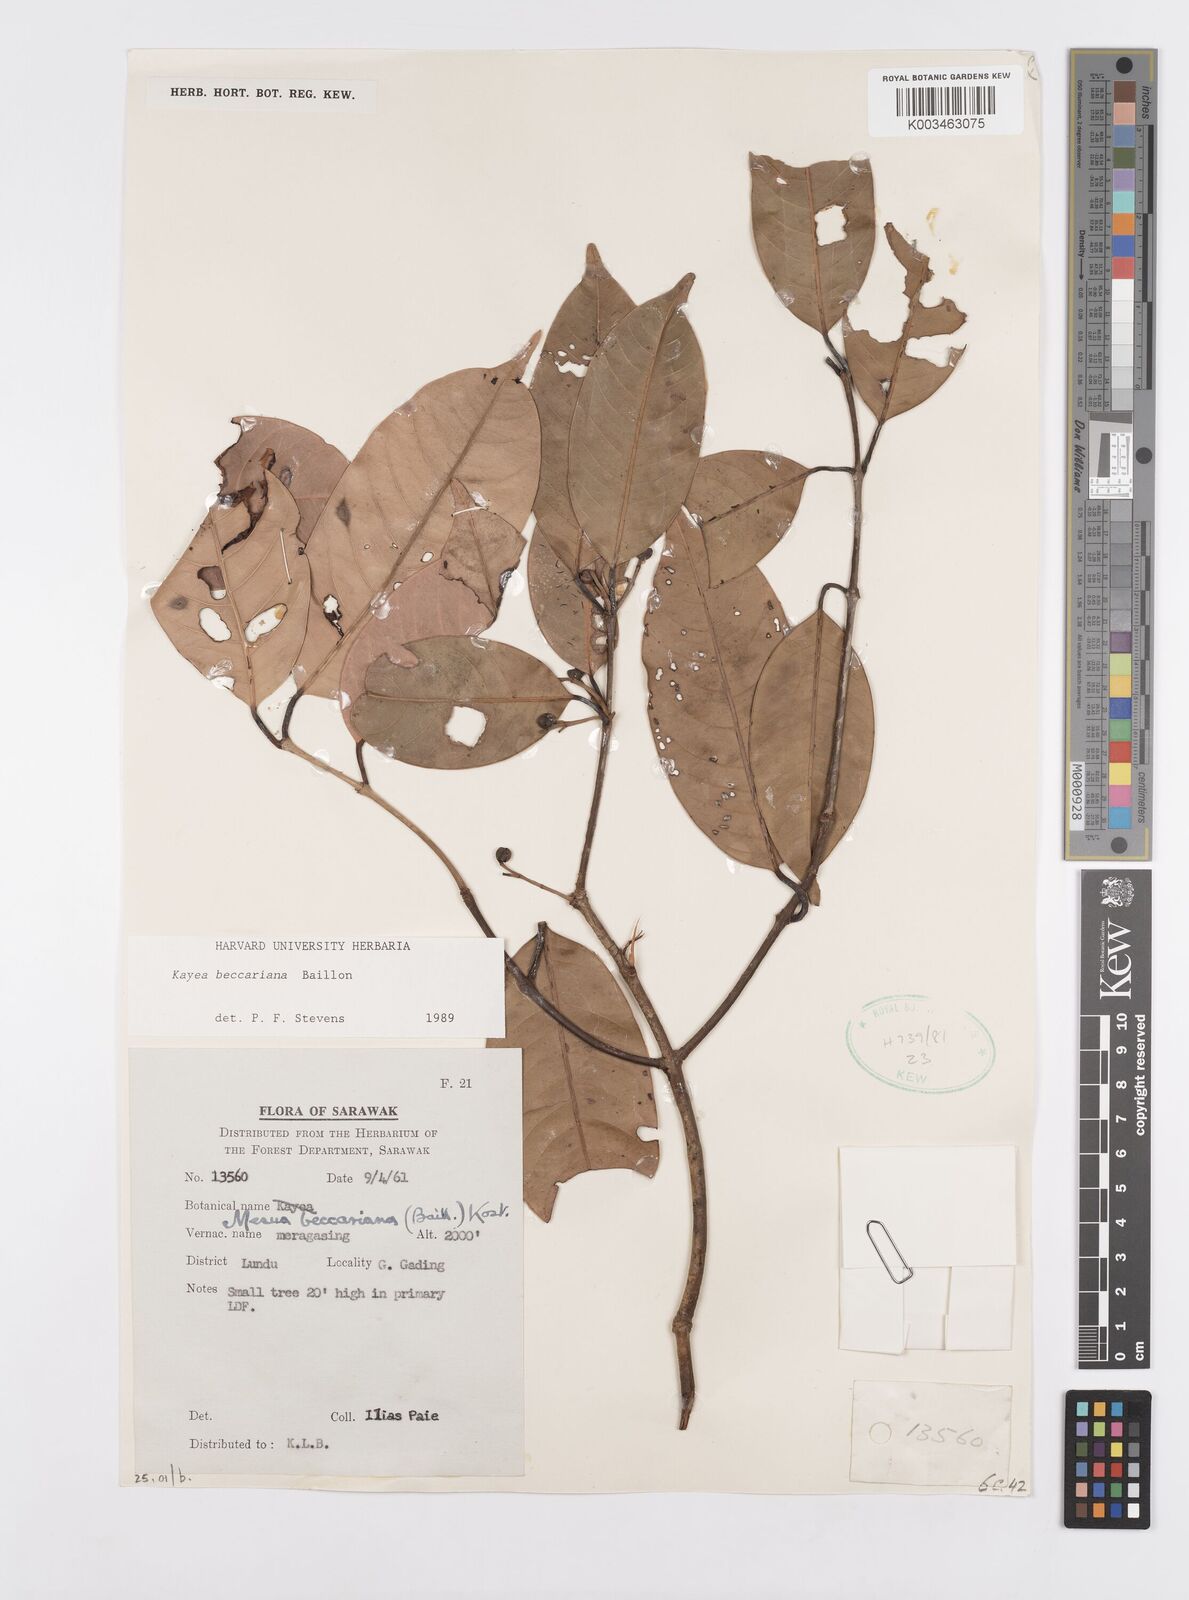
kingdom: Plantae
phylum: Tracheophyta
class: Magnoliopsida
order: Malpighiales
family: Calophyllaceae
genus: Kayea
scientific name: Kayea beccariana
